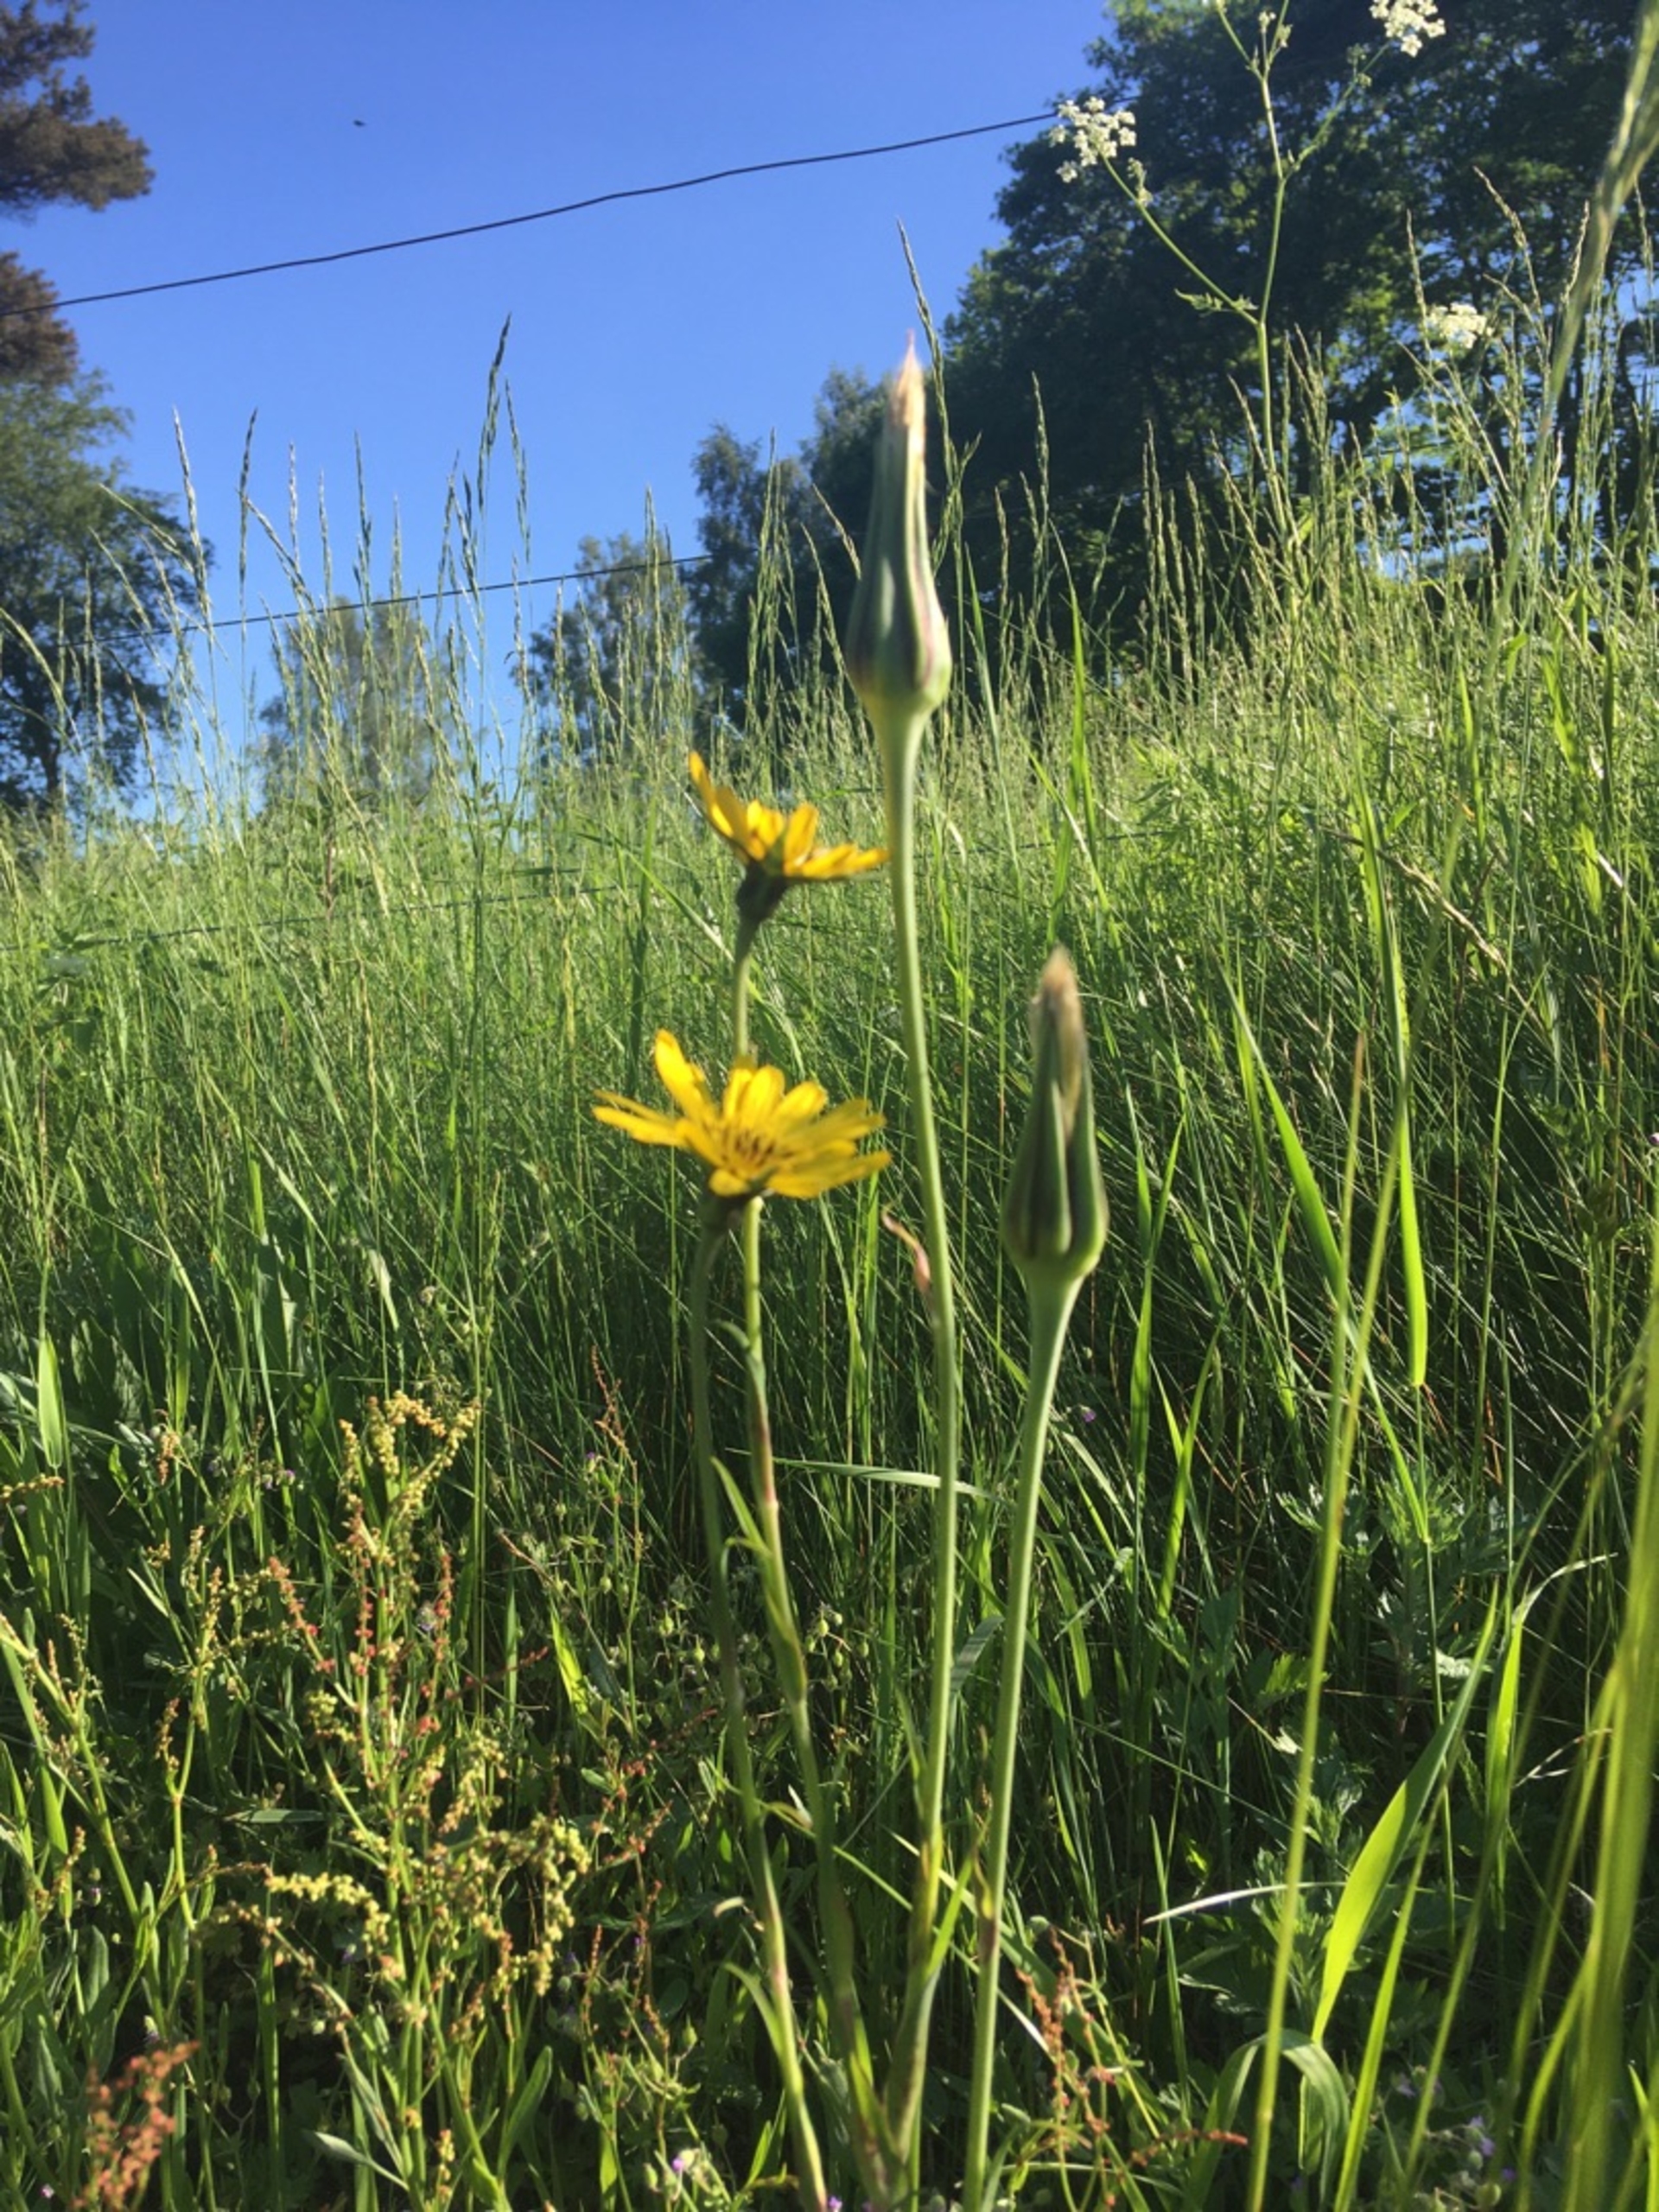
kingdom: Plantae
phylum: Tracheophyta
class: Magnoliopsida
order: Asterales
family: Asteraceae
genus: Tragopogon
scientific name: Tragopogon pratensis
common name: Gedeskæg
